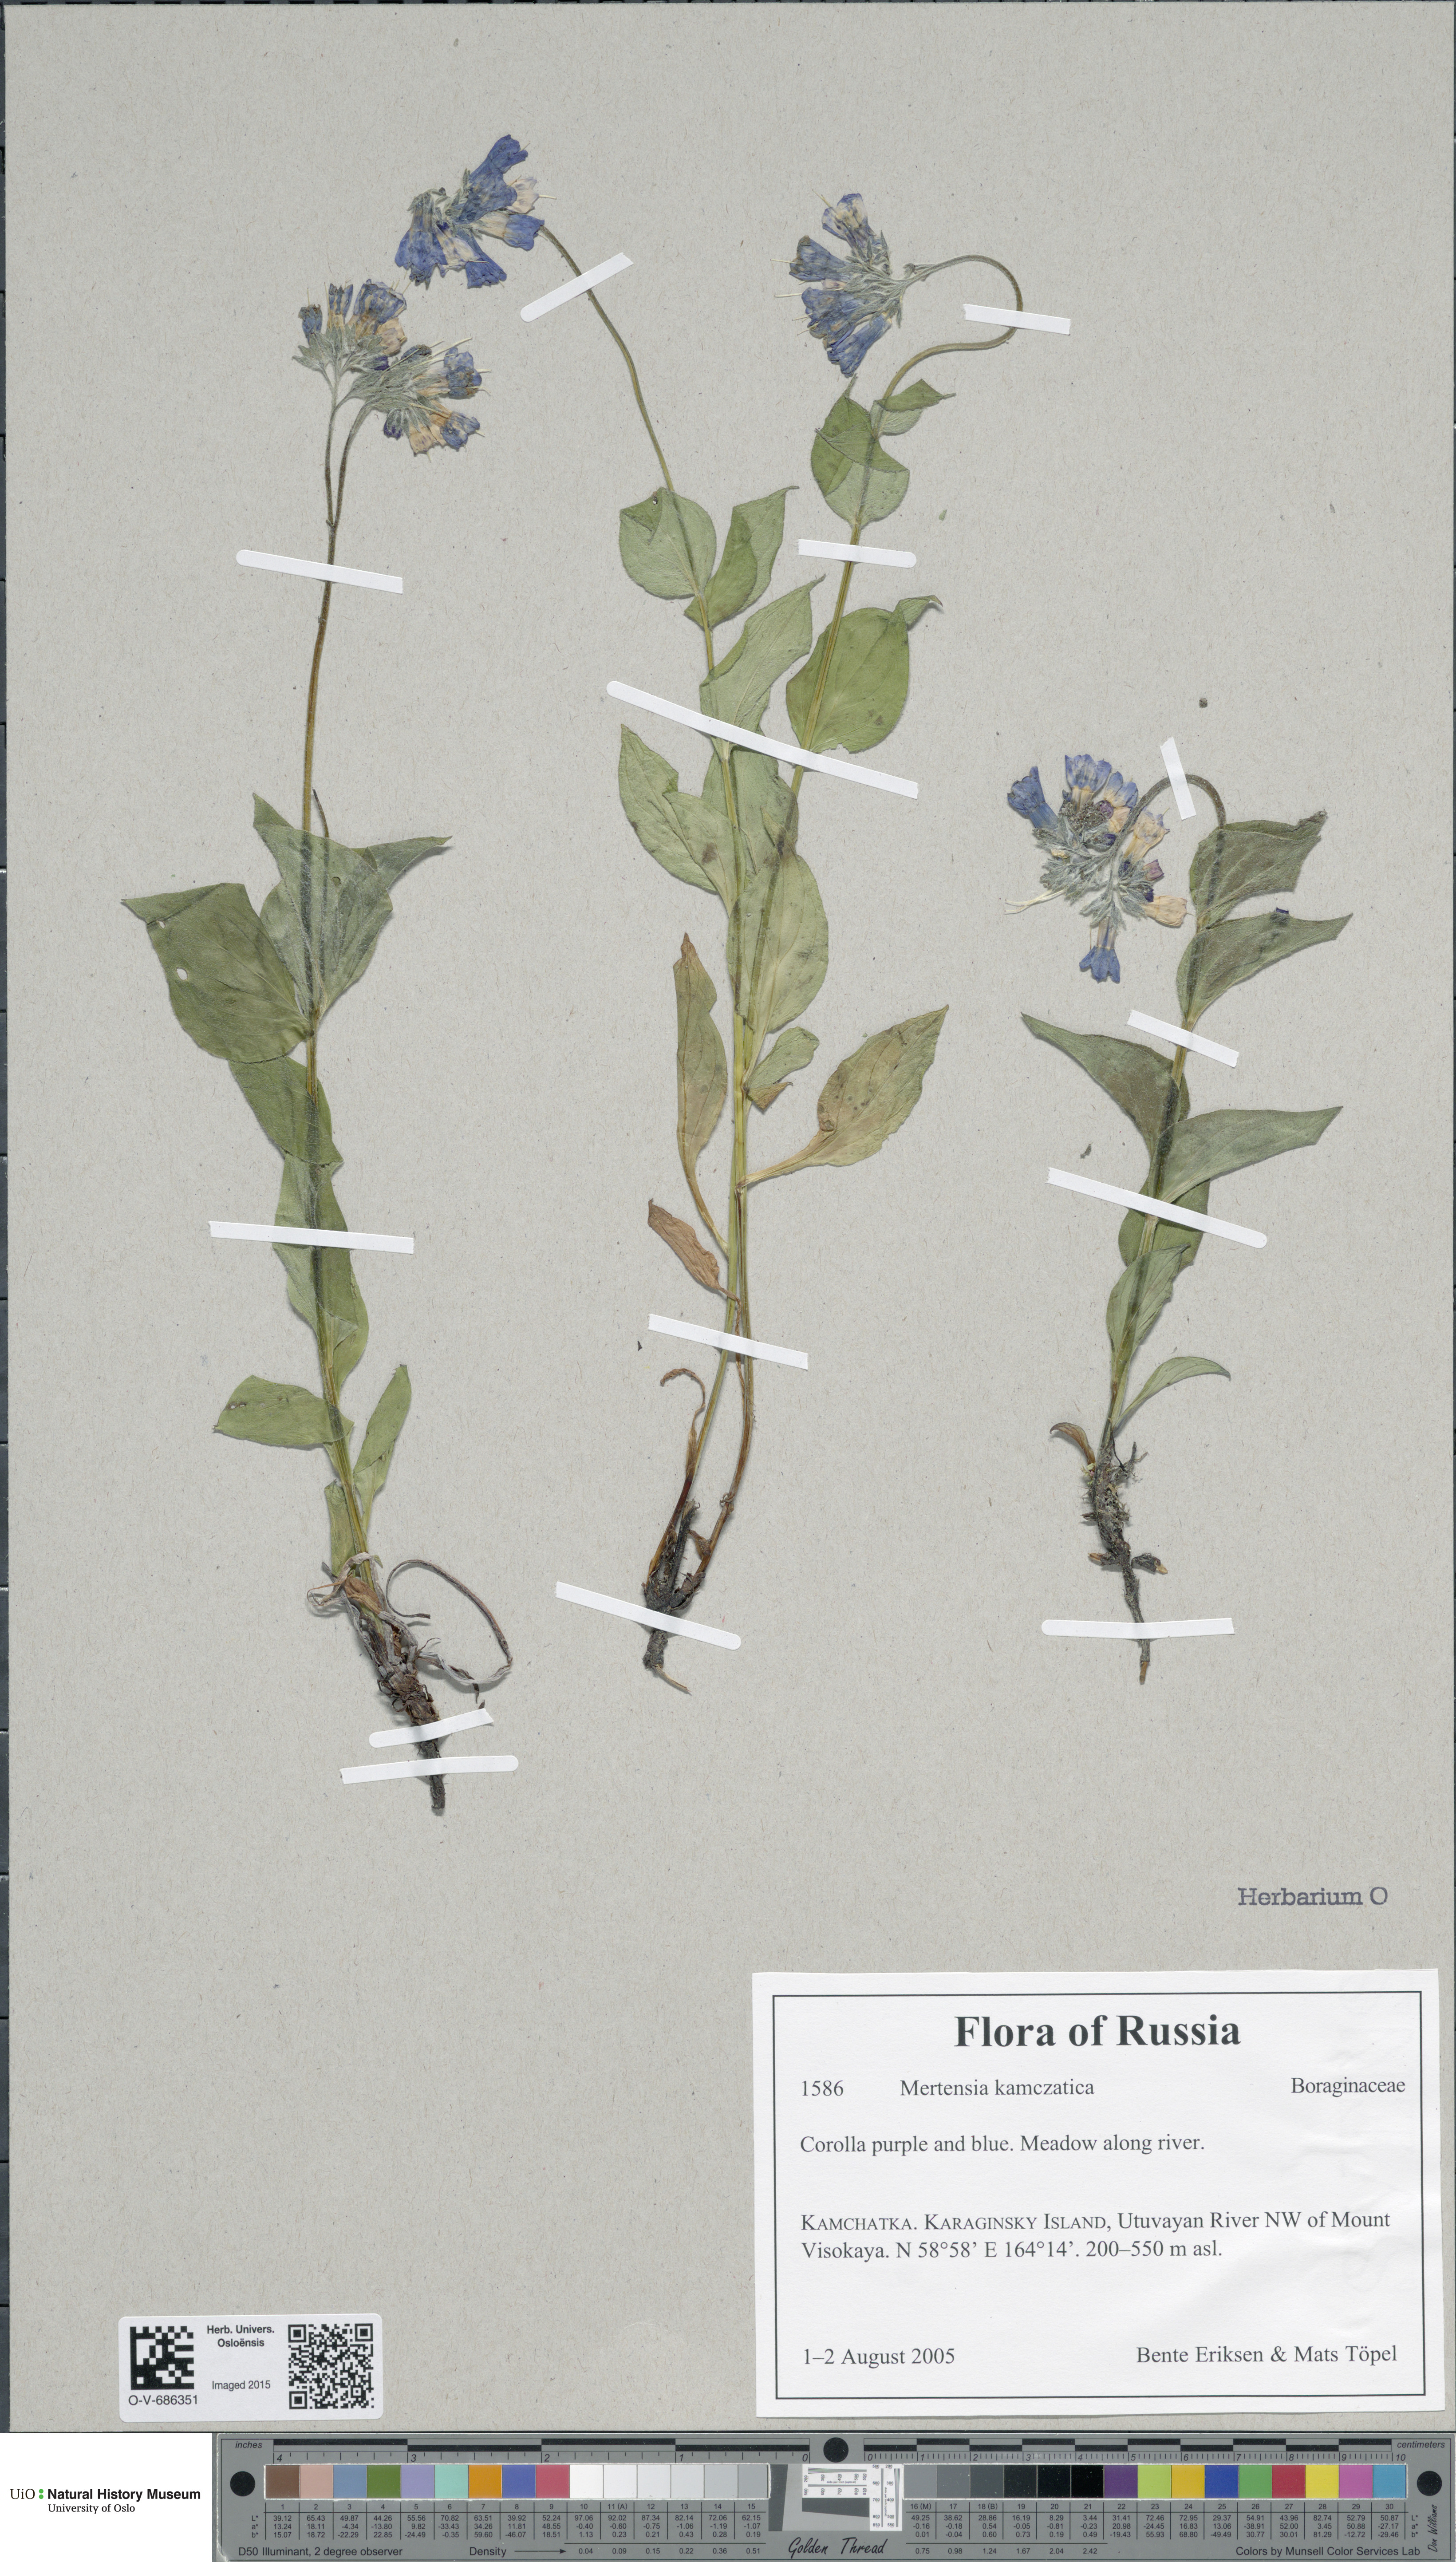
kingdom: Plantae
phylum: Tracheophyta
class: Magnoliopsida
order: Boraginales
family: Boraginaceae
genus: Mertensia
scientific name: Mertensia kamczatica
